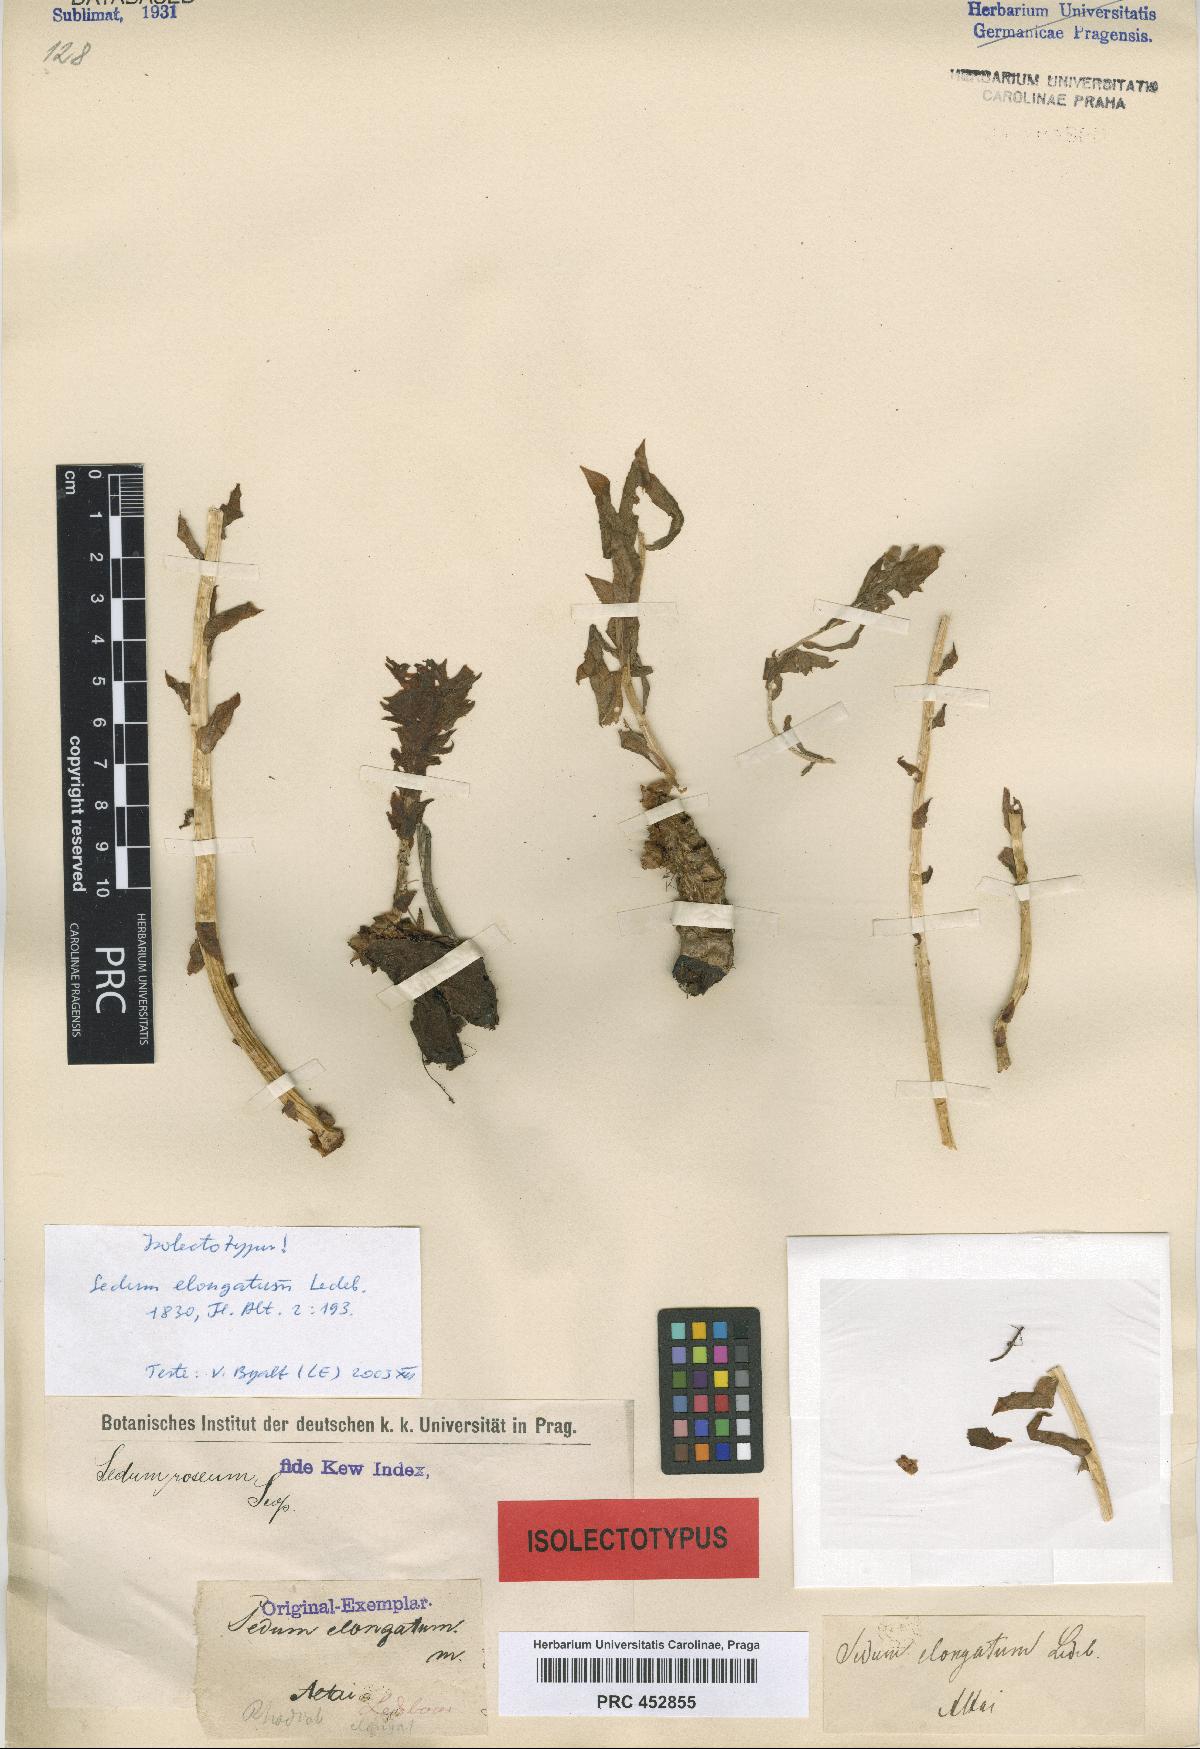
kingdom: Plantae
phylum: Tracheophyta
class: Magnoliopsida
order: Saxifragales
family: Crassulaceae
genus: Rhodiola
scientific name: Rhodiola rosea
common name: Roseroot
